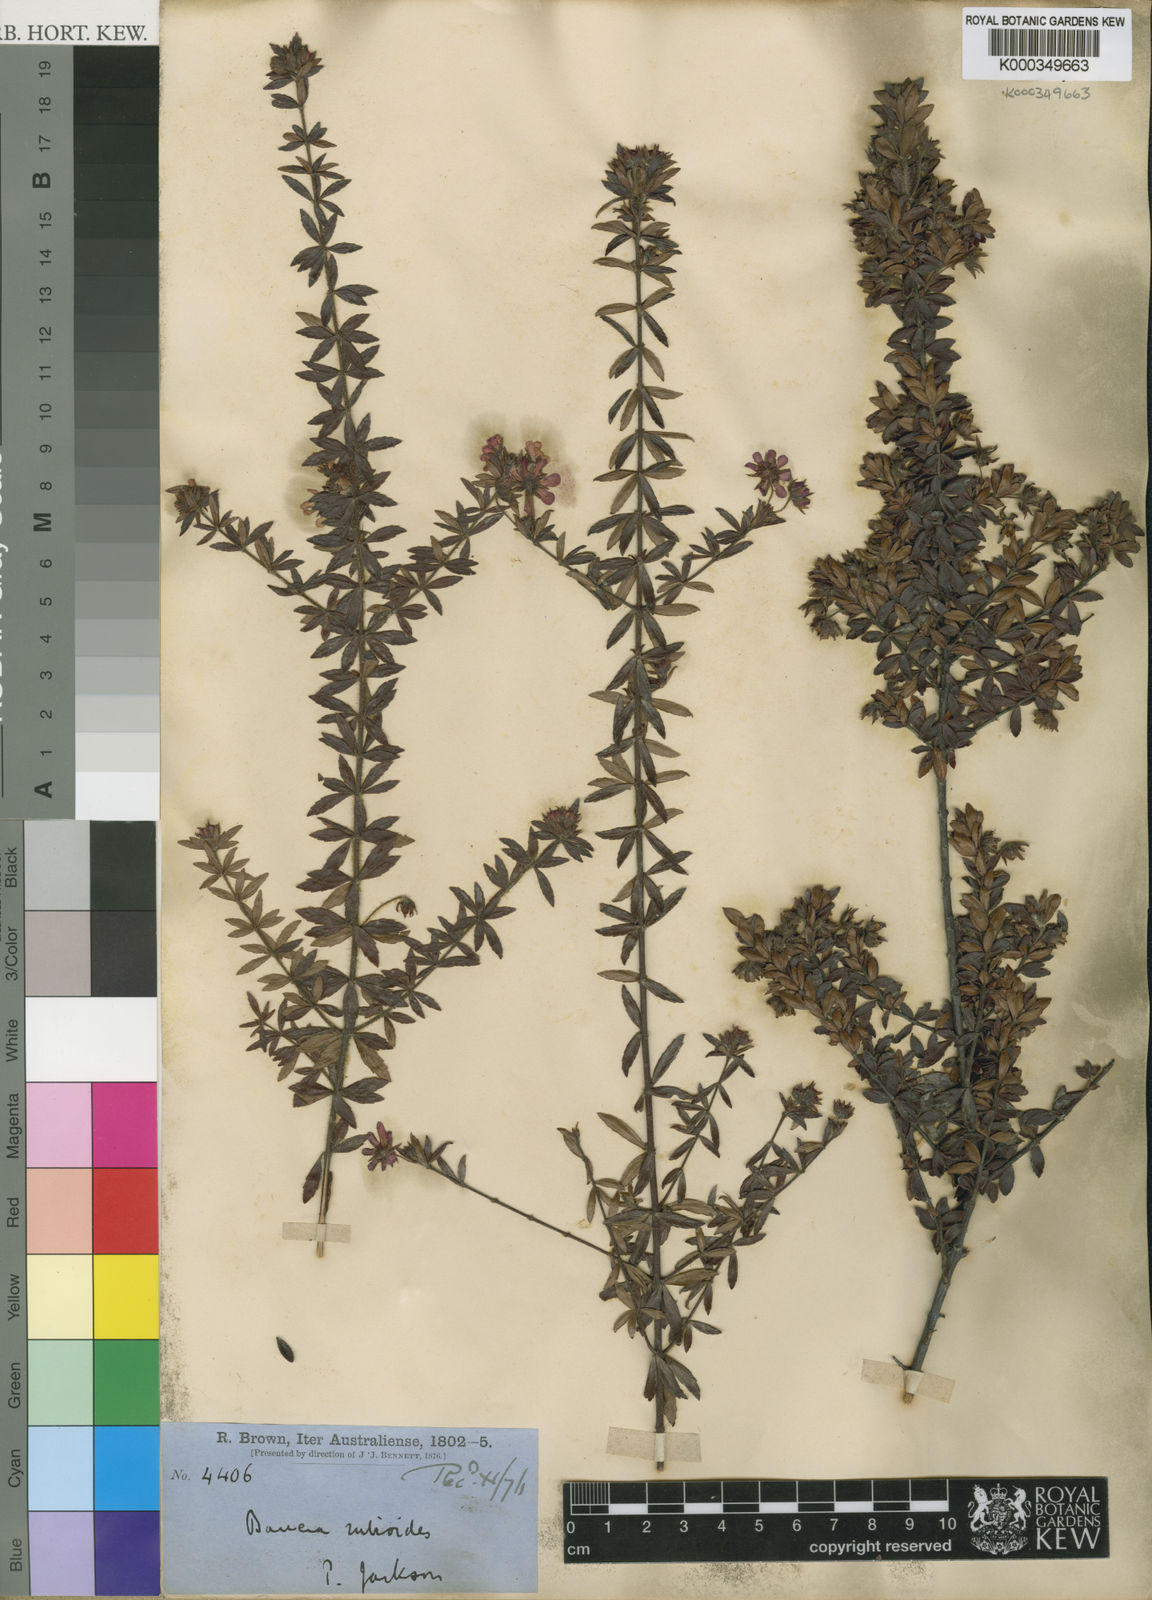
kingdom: Plantae
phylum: Tracheophyta
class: Magnoliopsida
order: Oxalidales
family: Cunoniaceae
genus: Bauera
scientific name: Bauera rubioides
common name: River-rose
